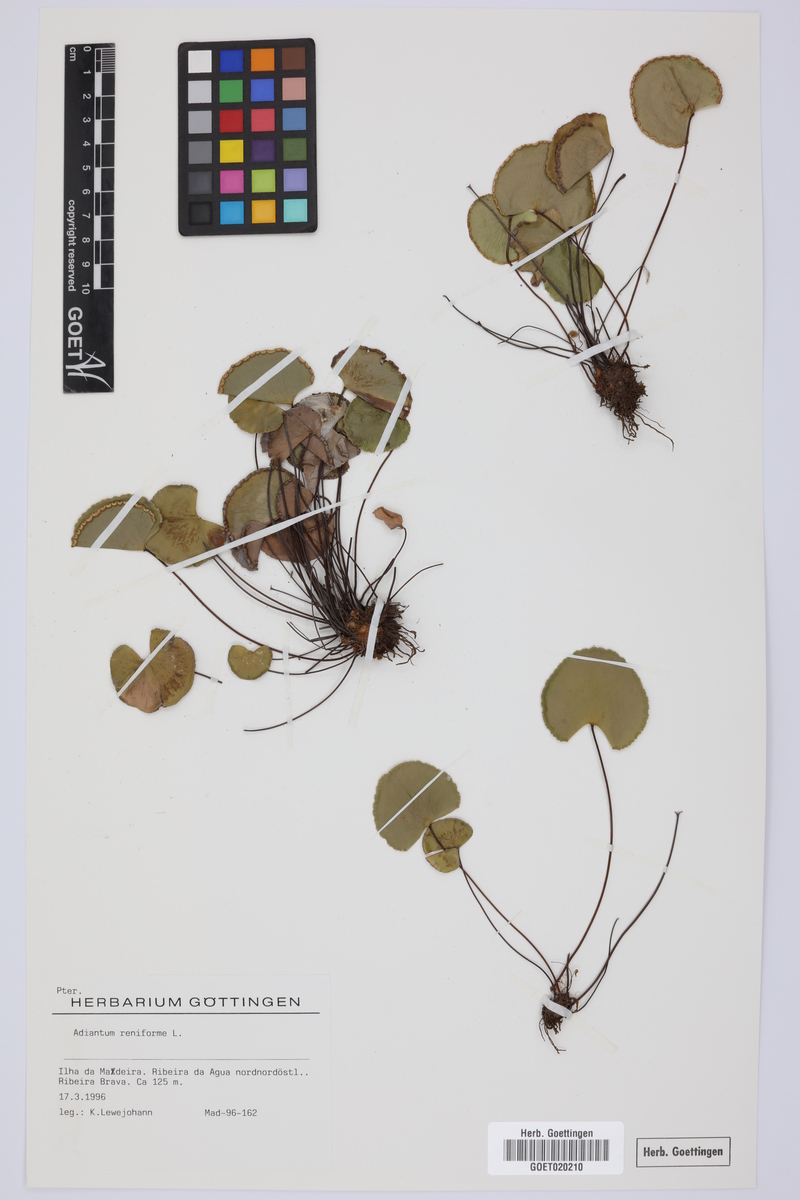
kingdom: Plantae
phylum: Tracheophyta
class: Polypodiopsida
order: Polypodiales
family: Pteridaceae
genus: Adiantum
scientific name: Adiantum reniforme
